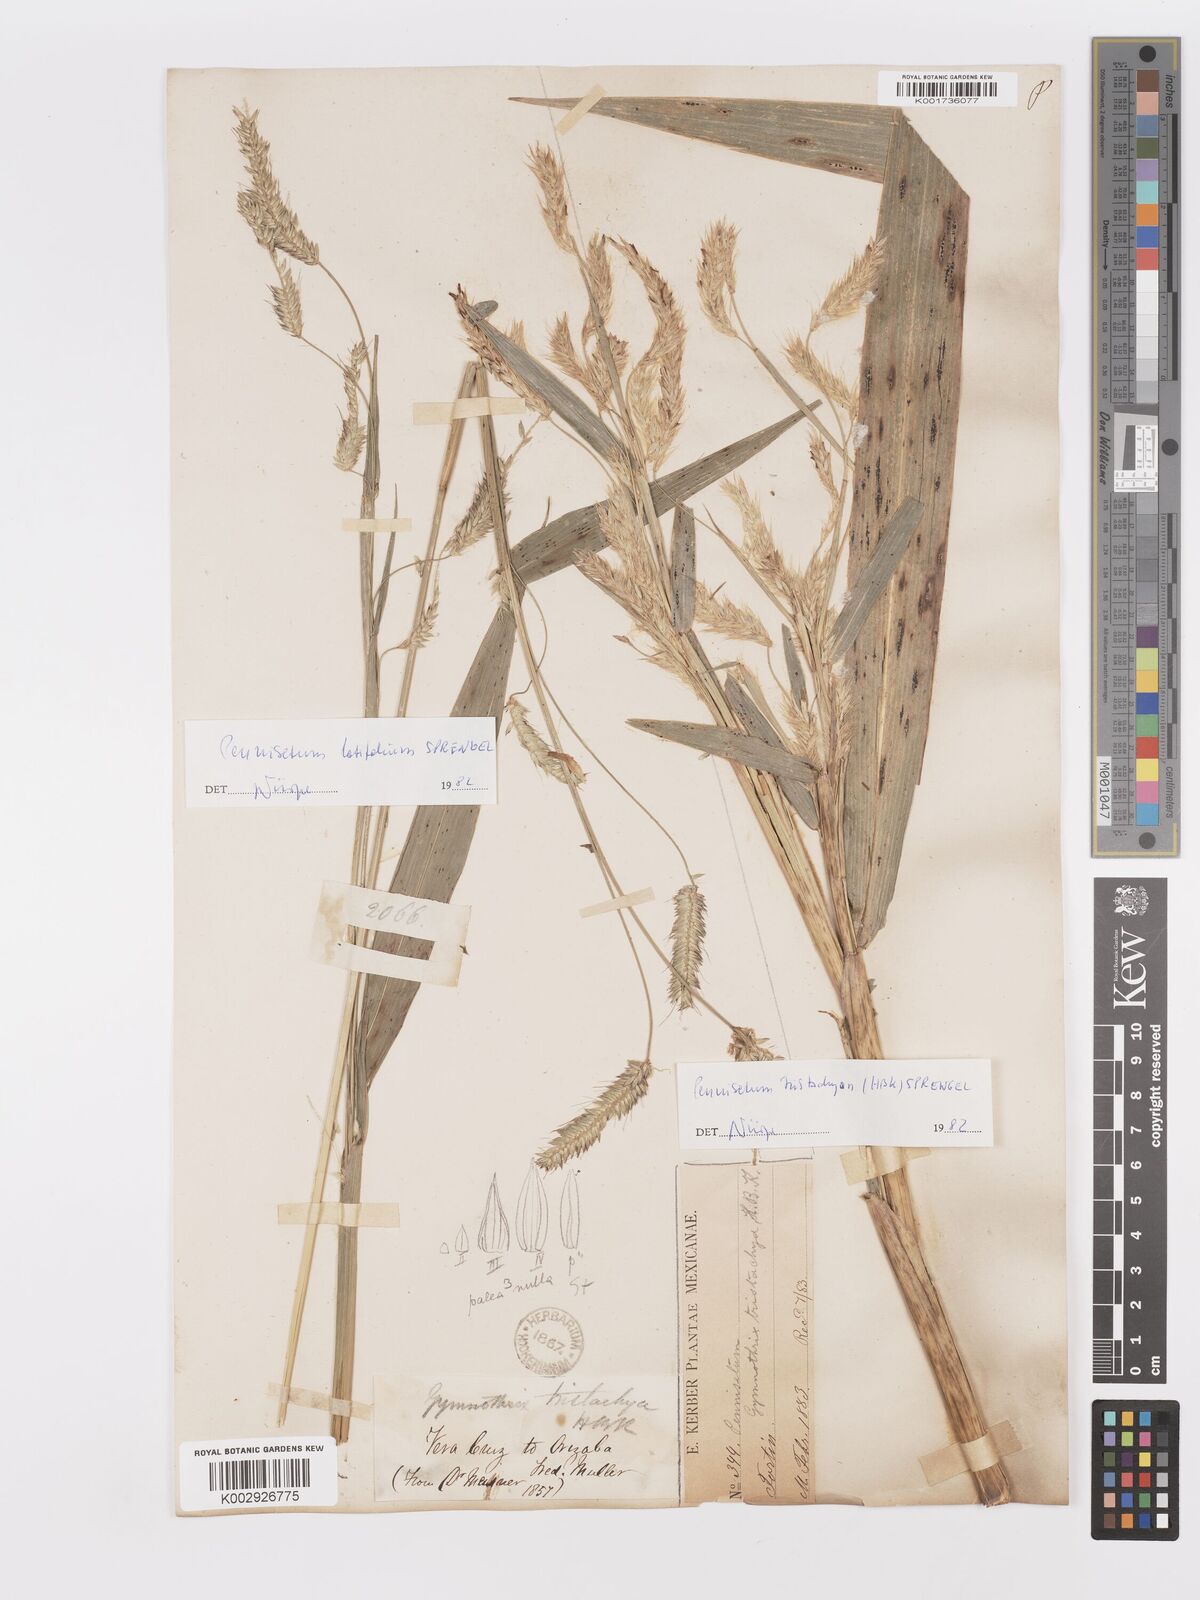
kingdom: Plantae
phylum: Tracheophyta
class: Liliopsida
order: Poales
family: Poaceae
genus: Cenchrus
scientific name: Cenchrus latifolius
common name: Sandbur
